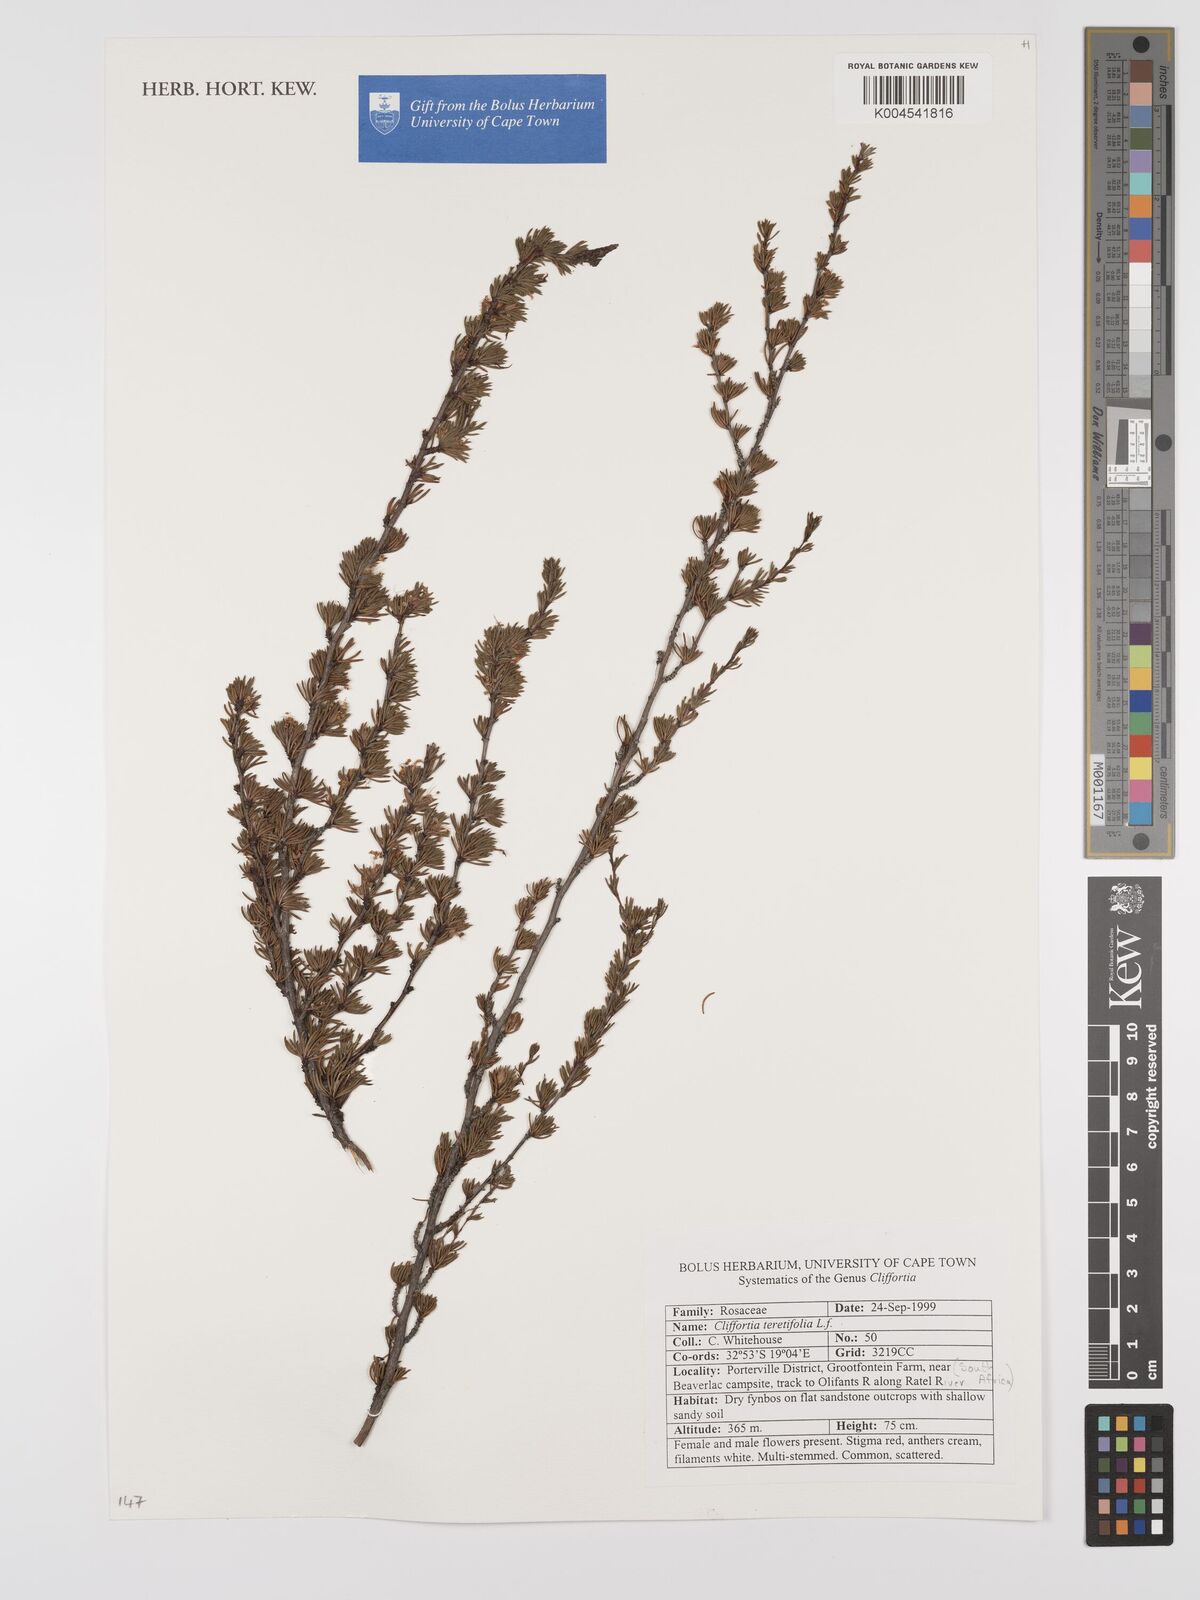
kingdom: Plantae
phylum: Tracheophyta
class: Magnoliopsida
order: Rosales
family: Rosaceae
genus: Cliffortia
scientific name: Cliffortia teretifolia
